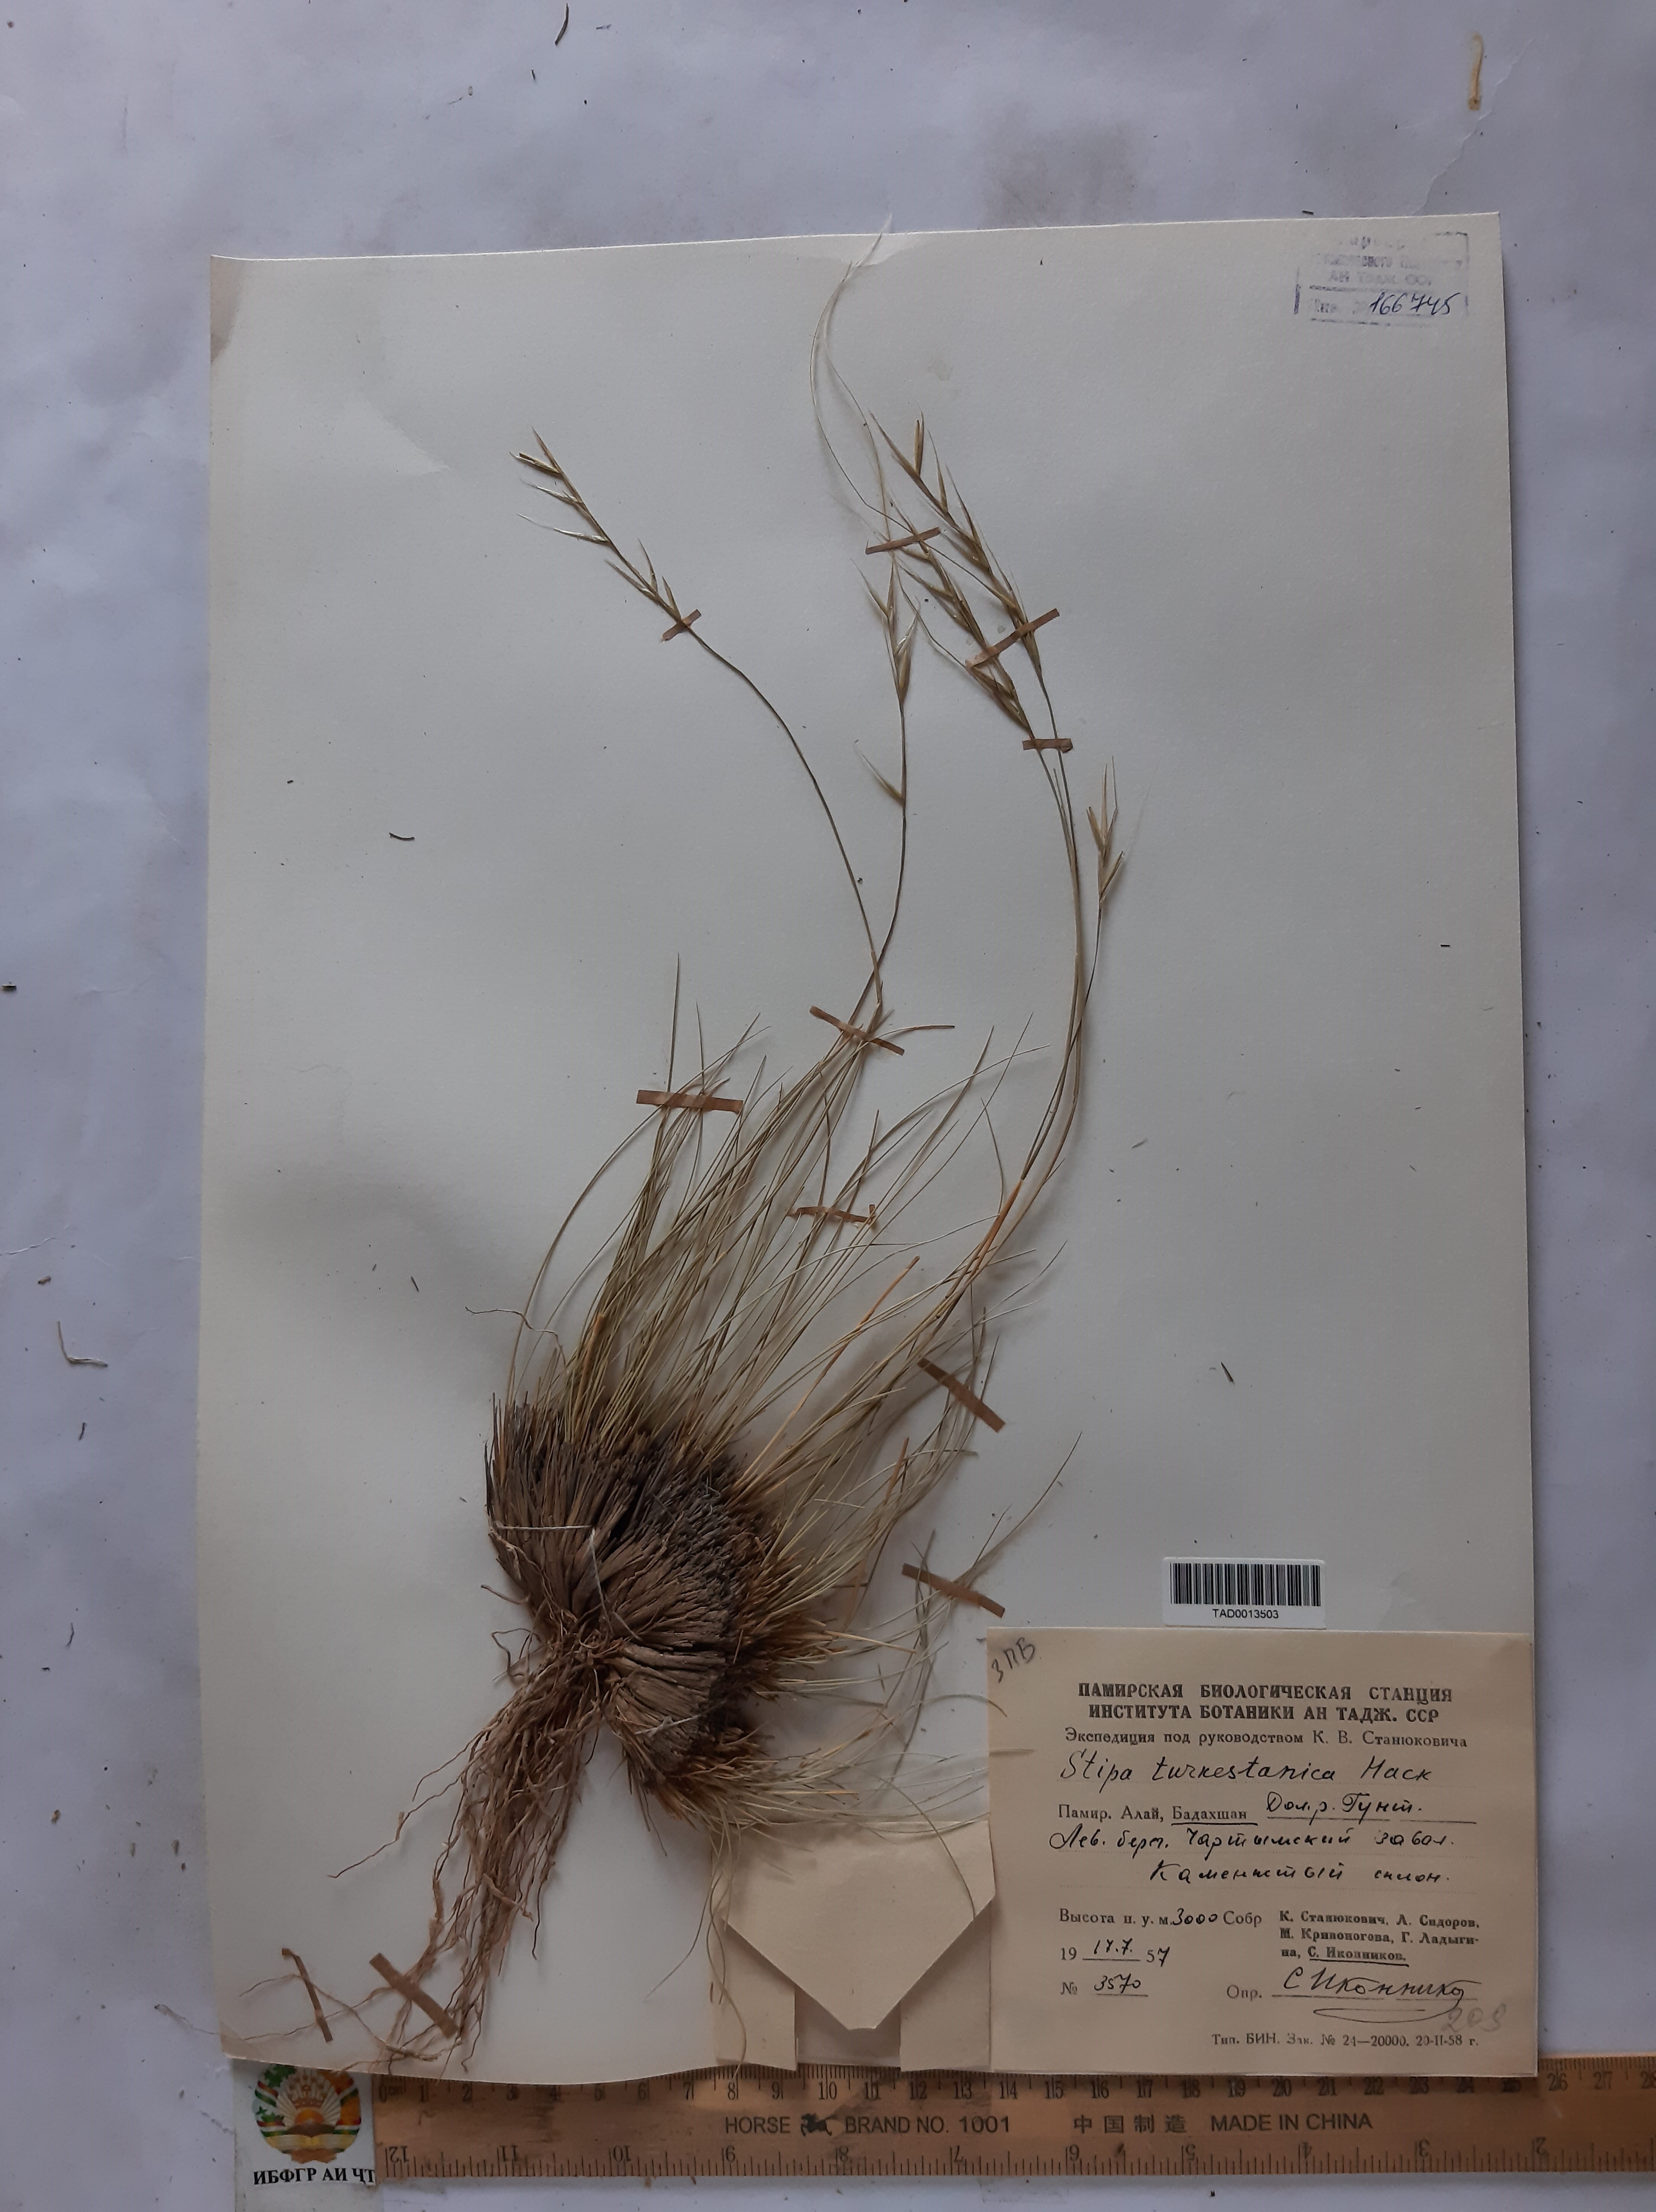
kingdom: Plantae
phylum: Tracheophyta
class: Liliopsida
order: Poales
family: Poaceae
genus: Stipa
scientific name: Stipa turkestanica
